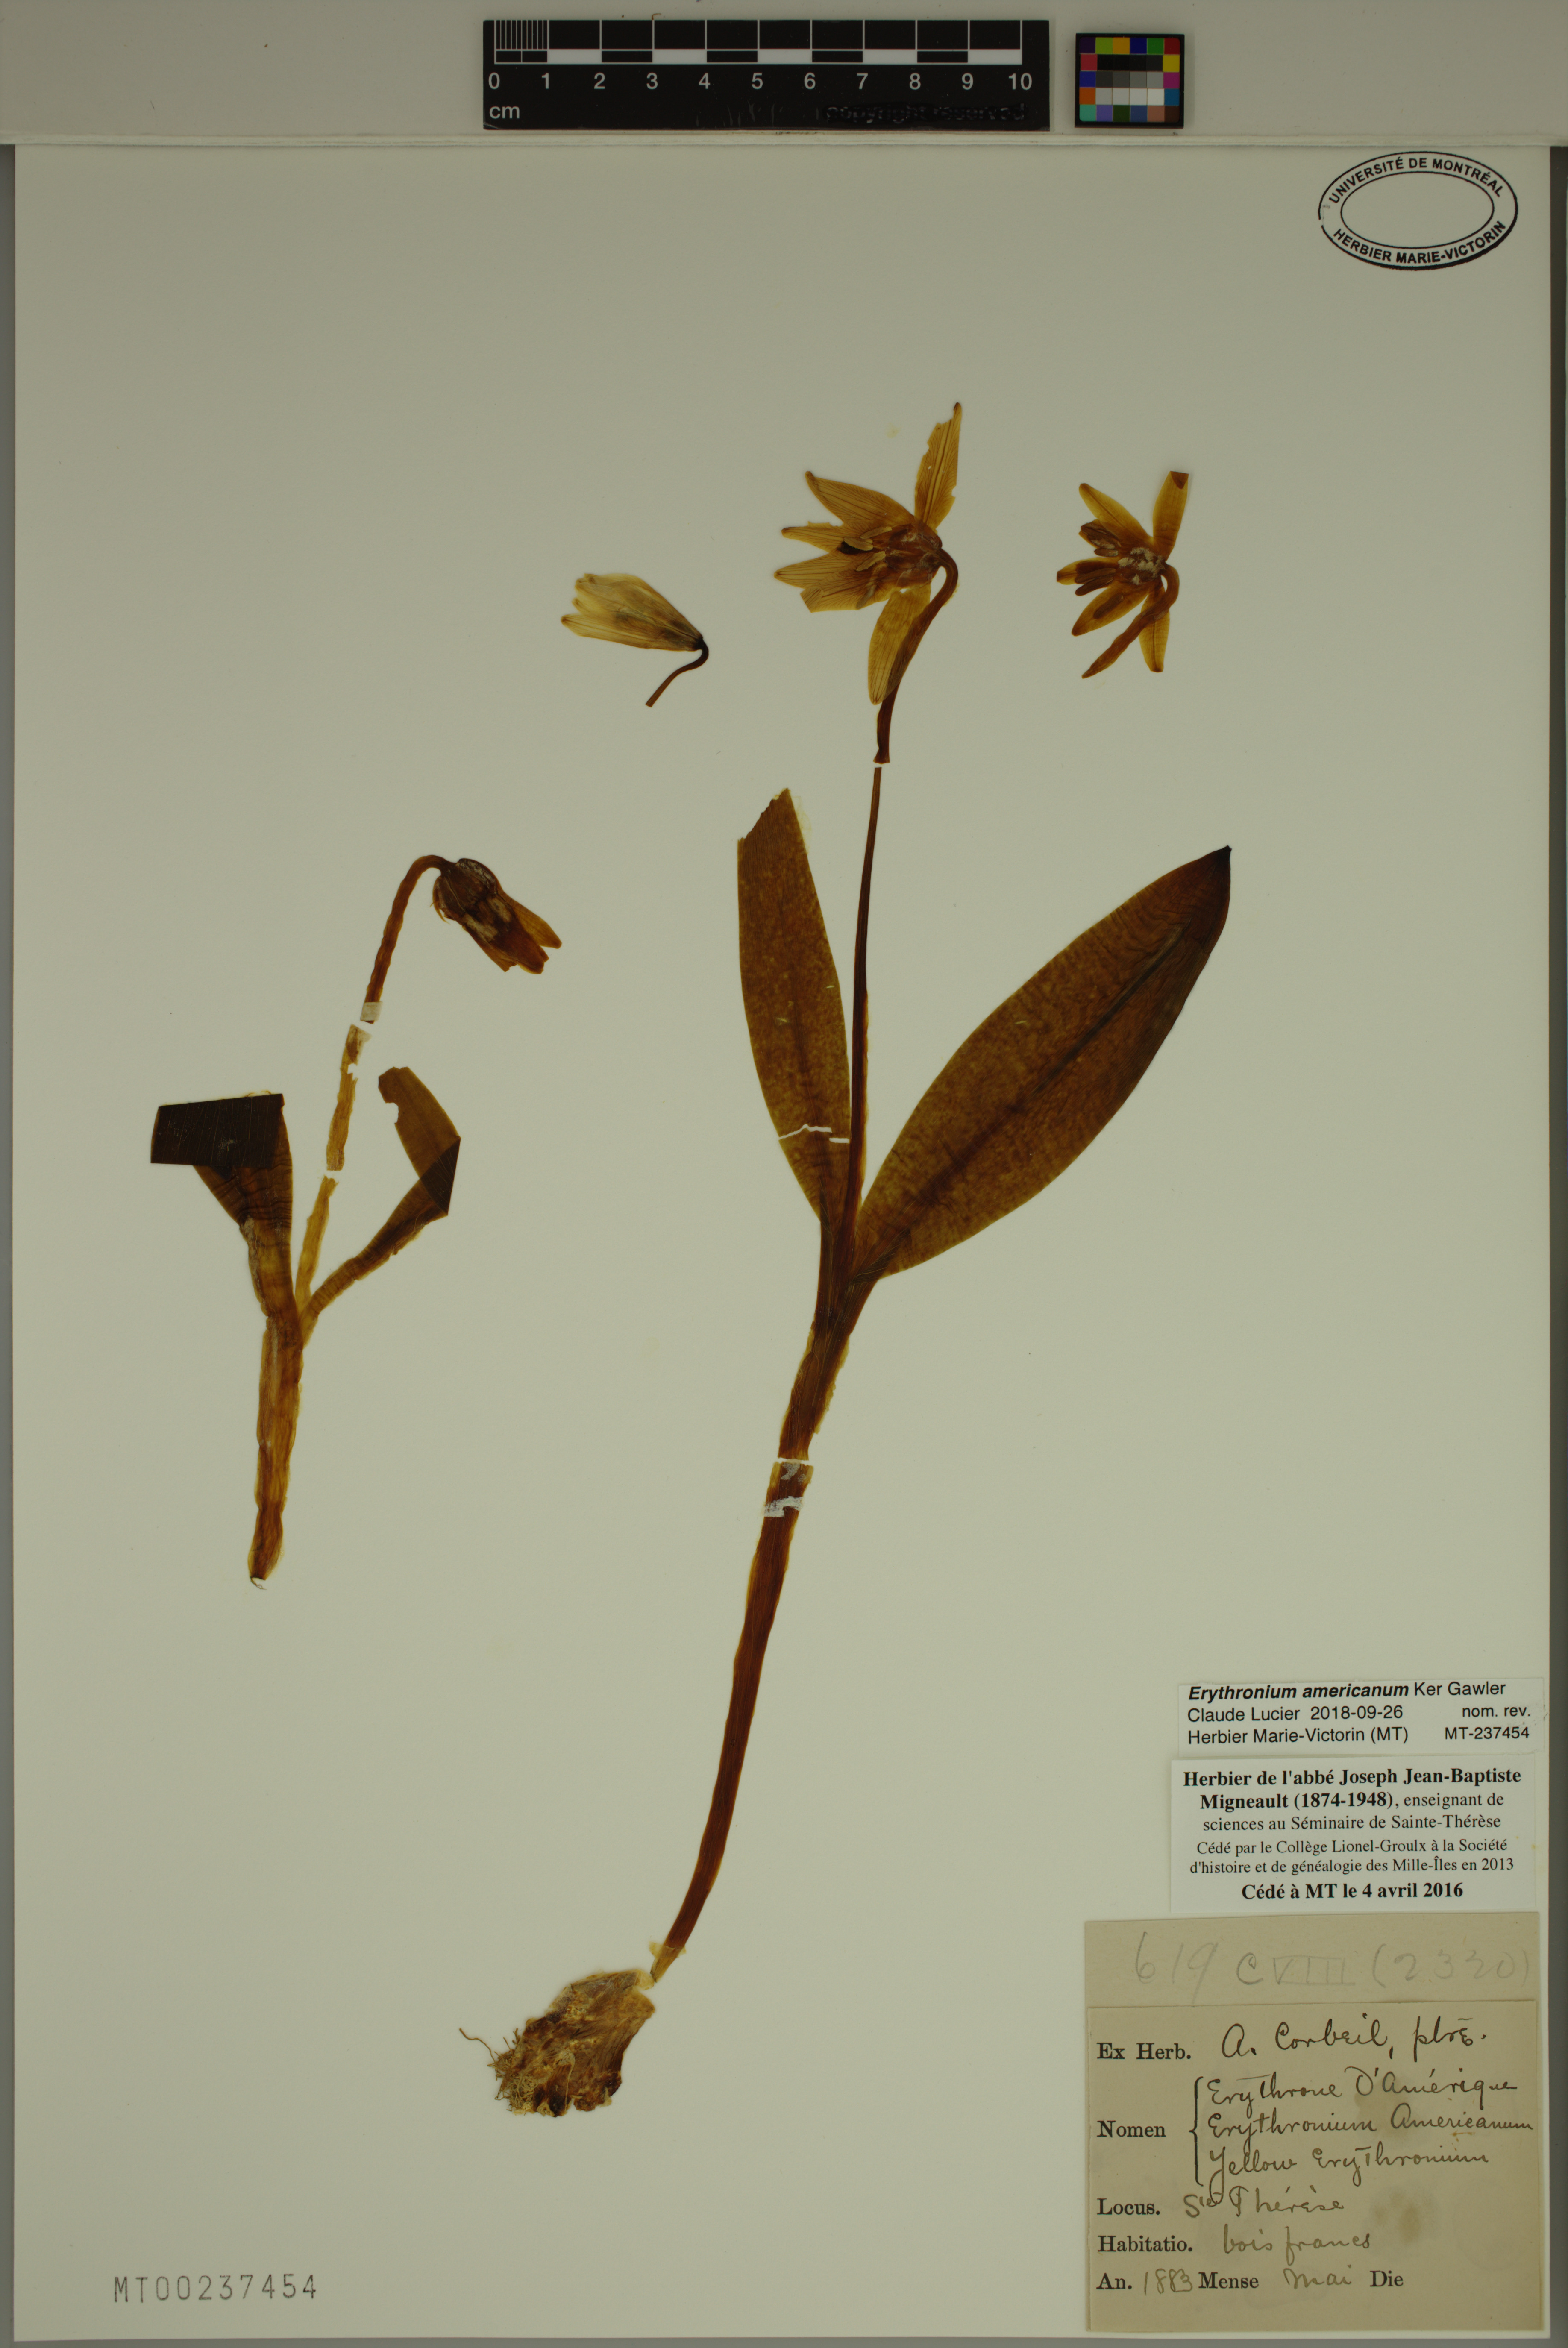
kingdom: Plantae
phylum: Tracheophyta
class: Liliopsida
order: Liliales
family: Liliaceae
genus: Erythronium
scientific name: Erythronium americanum
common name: Yellow adder's-tongue
